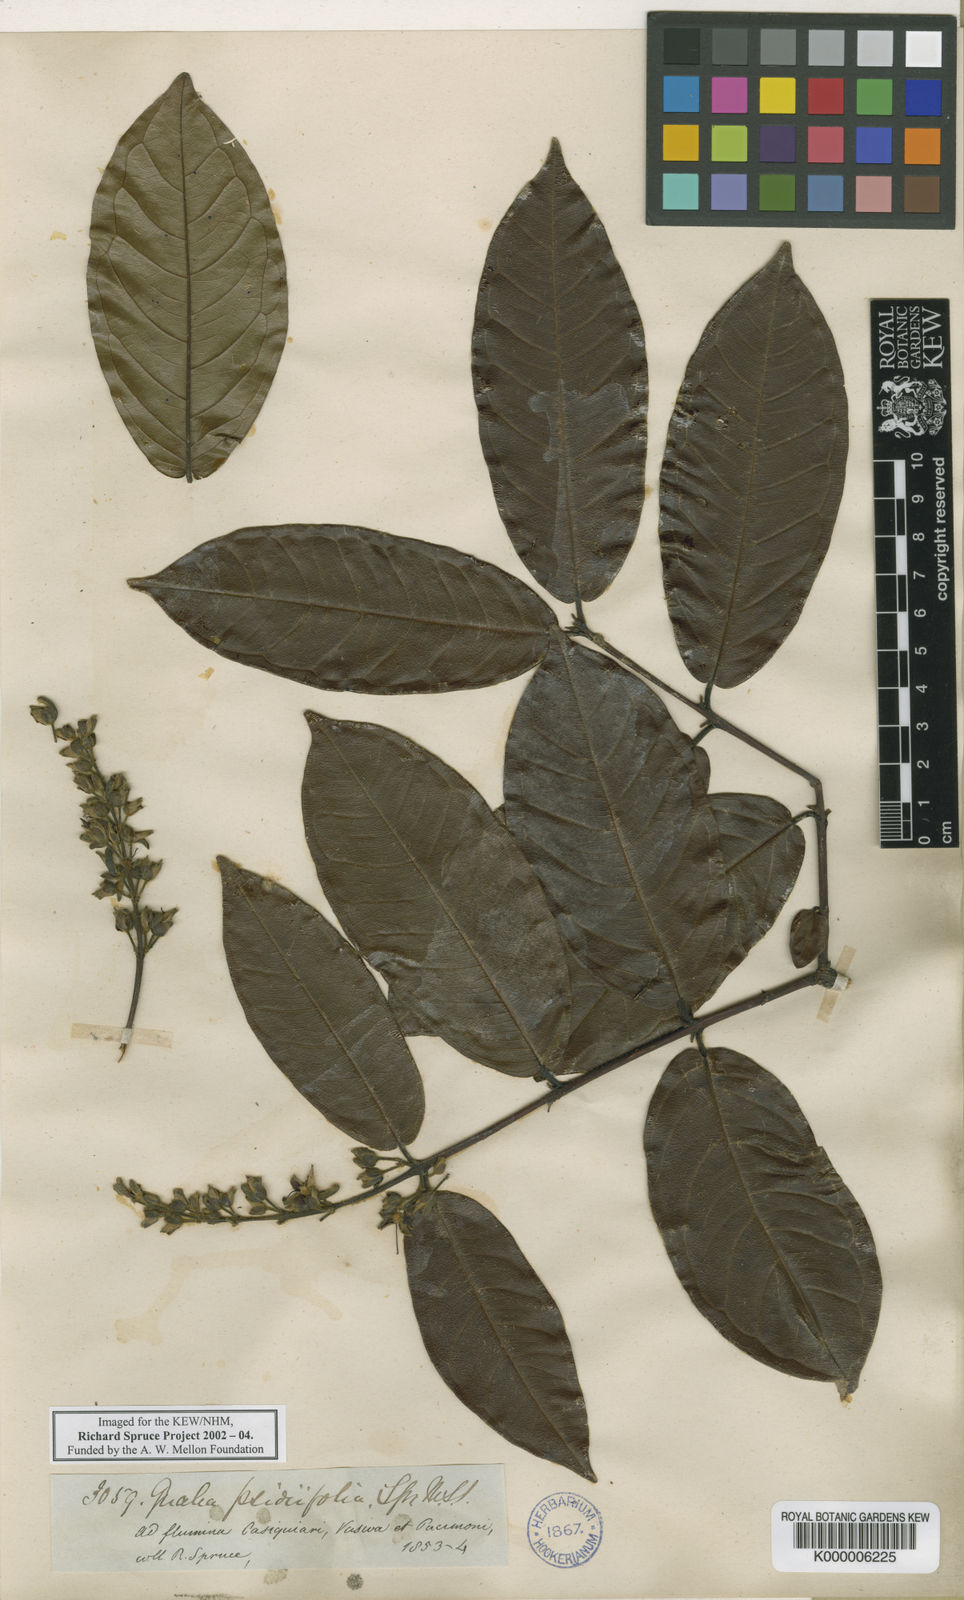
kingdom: Plantae
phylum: Tracheophyta
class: Magnoliopsida
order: Myrtales
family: Vochysiaceae
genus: Qualea
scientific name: Qualea psidiifolia
